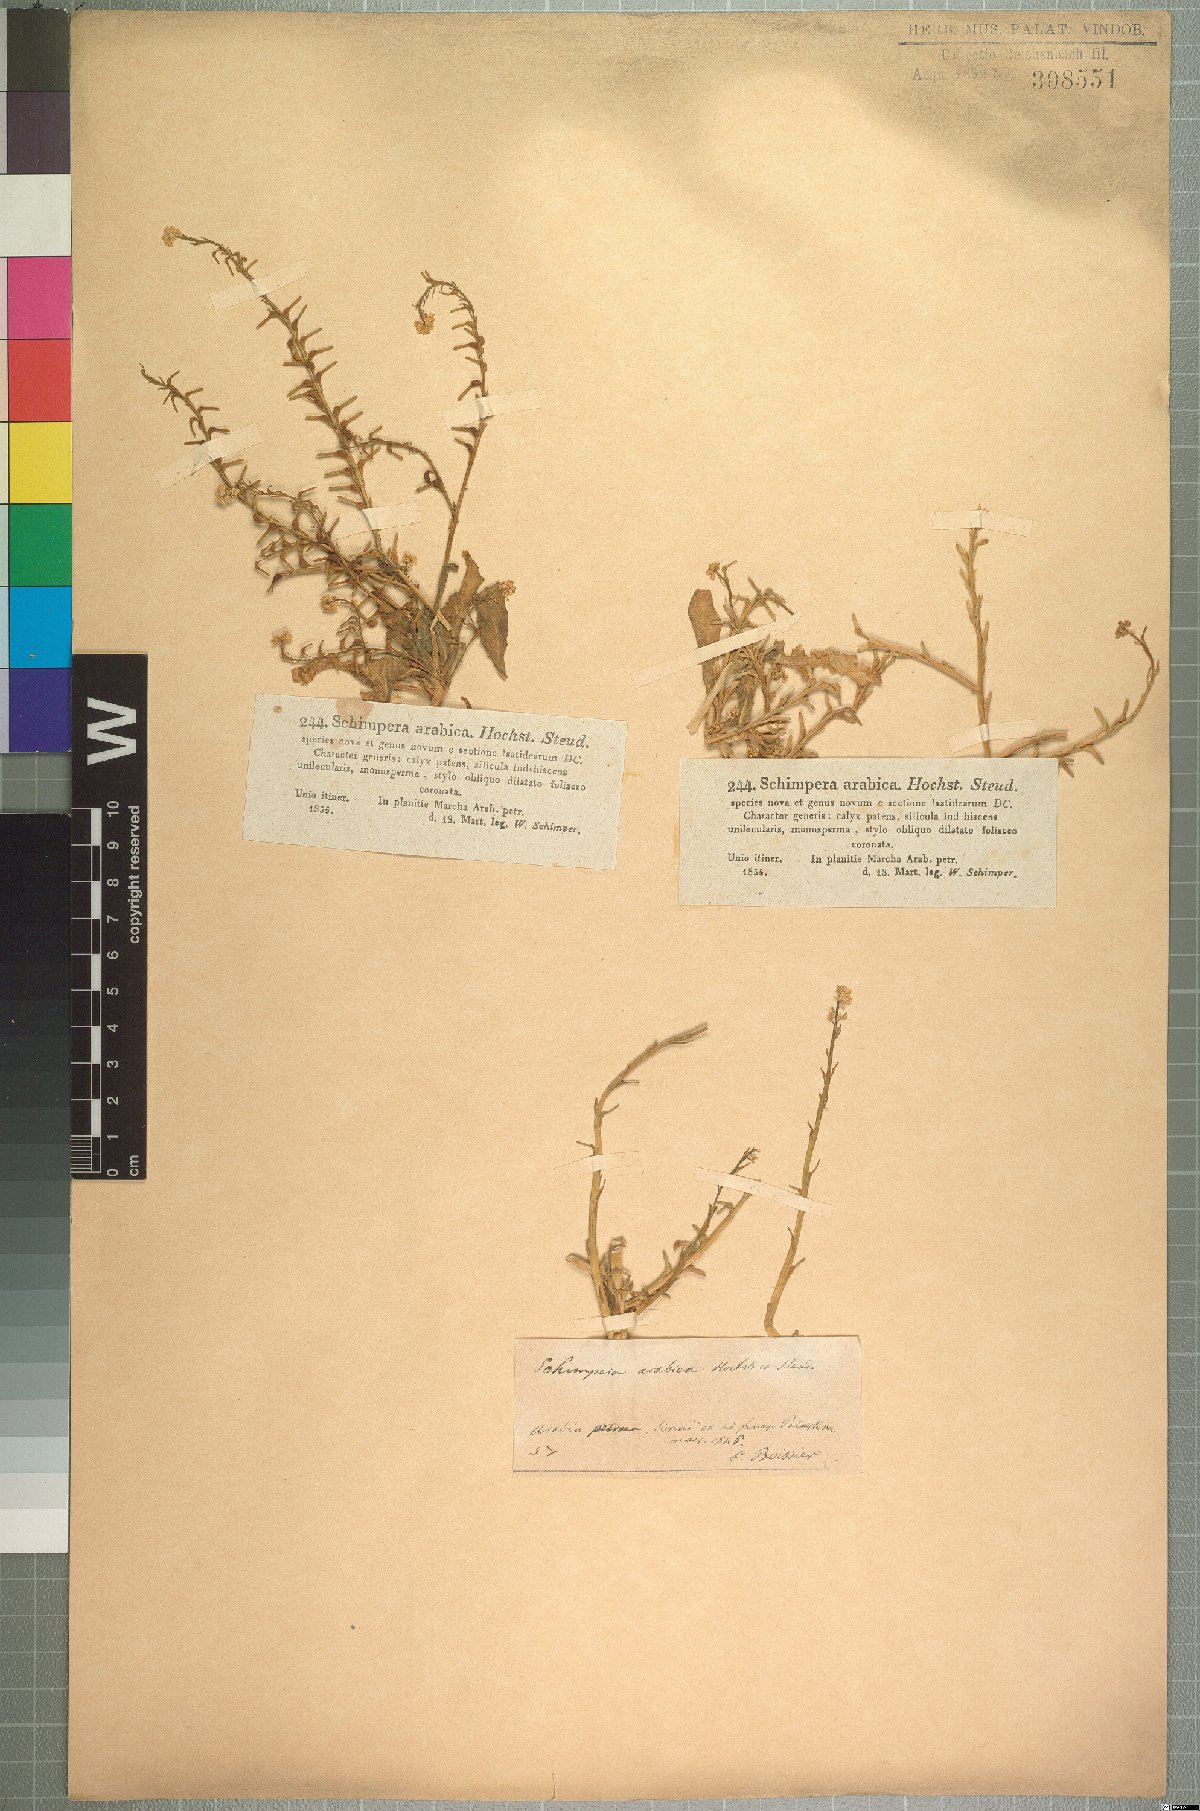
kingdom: Plantae
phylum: Tracheophyta
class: Magnoliopsida
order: Brassicales
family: Brassicaceae
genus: Schimpera
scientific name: Schimpera arabica
